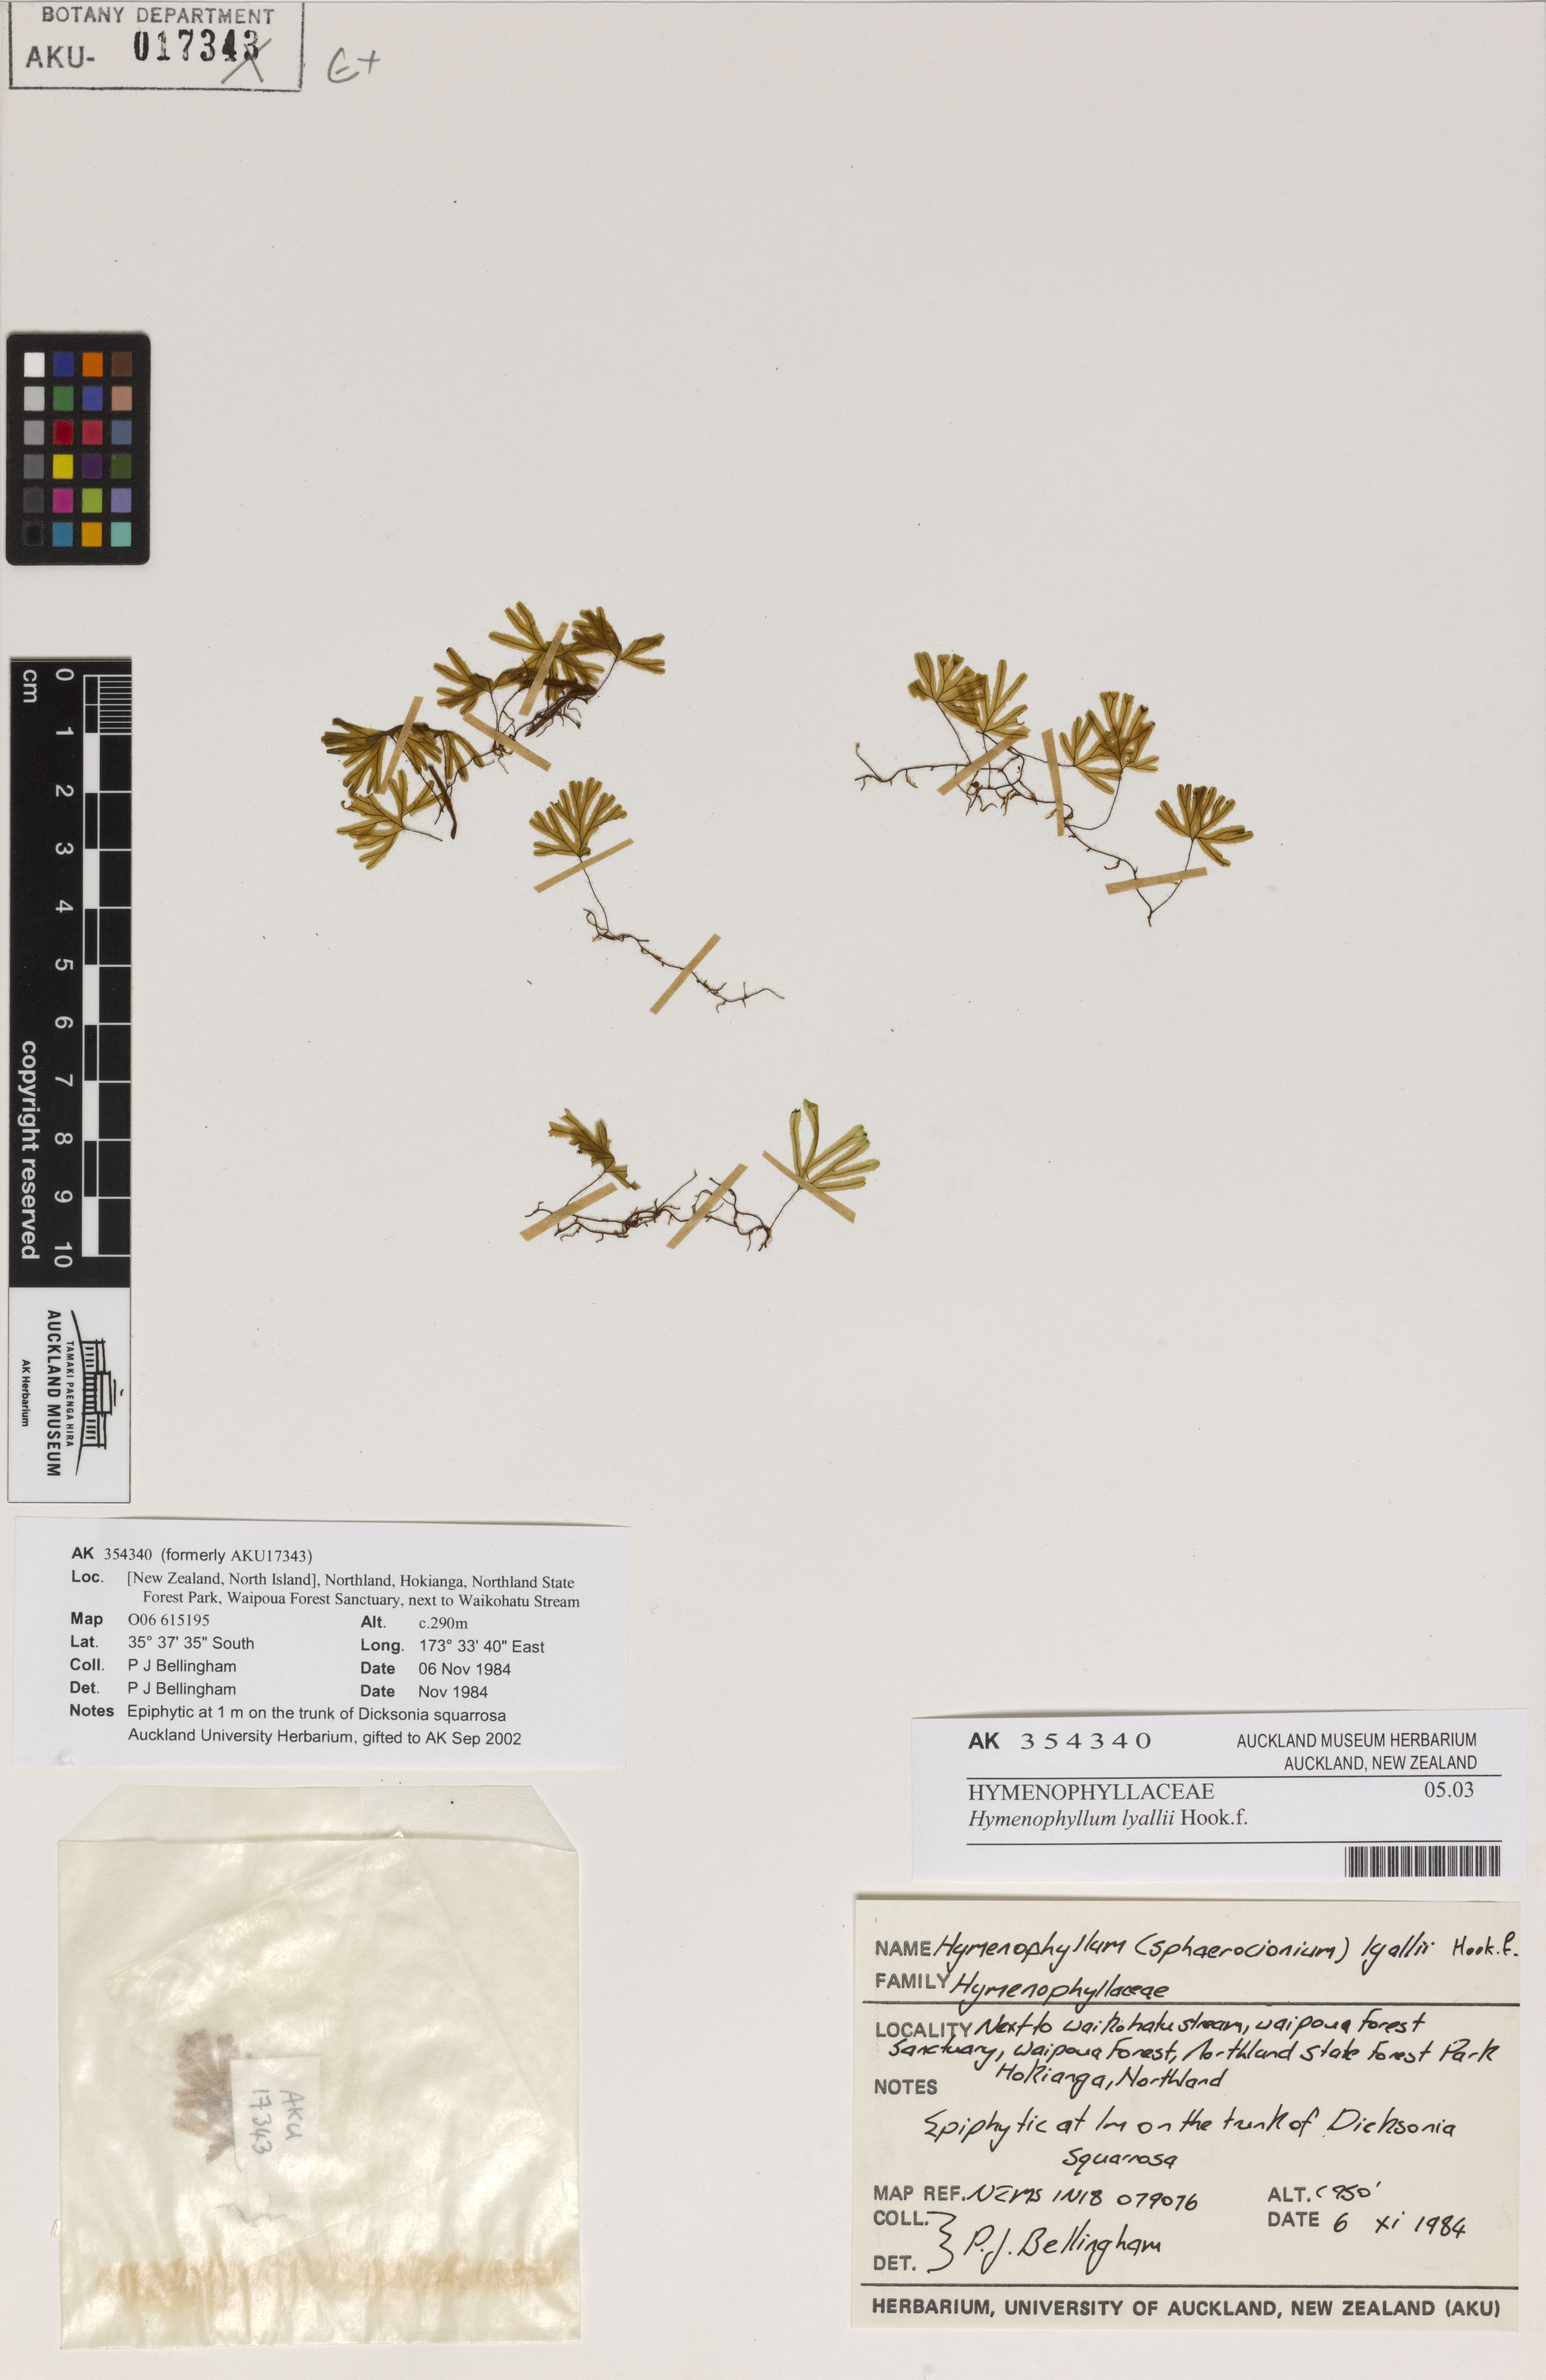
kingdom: Plantae
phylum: Tracheophyta
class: Polypodiopsida
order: Hymenophyllales
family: Hymenophyllaceae
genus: Hymenophyllum
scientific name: Hymenophyllum lyallii
